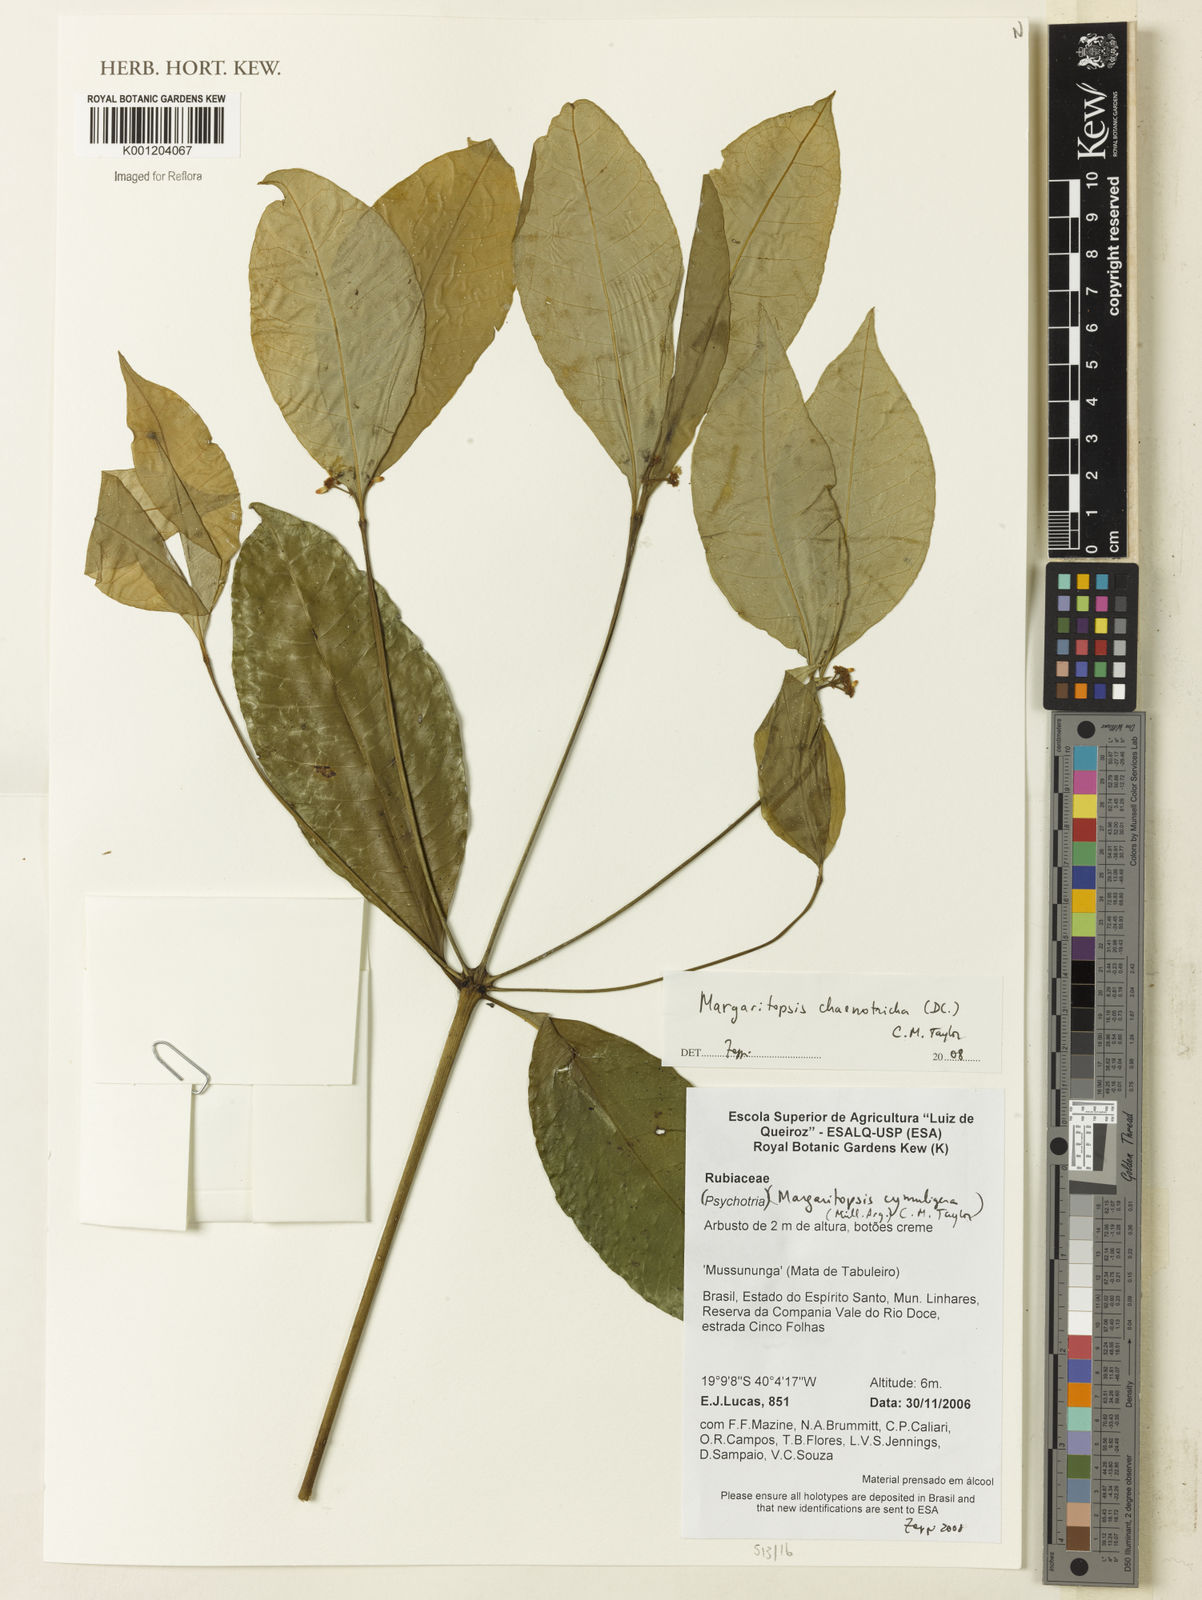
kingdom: Plantae
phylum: Tracheophyta
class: Magnoliopsida
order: Gentianales
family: Rubiaceae
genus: Eumachia
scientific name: Eumachia chaenotricha
